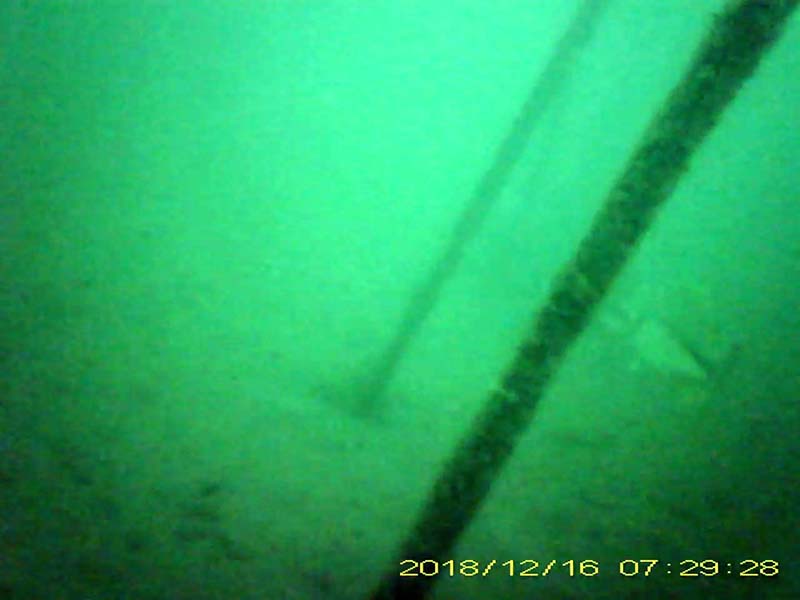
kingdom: Animalia
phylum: Chordata
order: Perciformes
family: Centrarchidae
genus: Micropterus
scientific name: Micropterus salmoides
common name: オオクチバス
